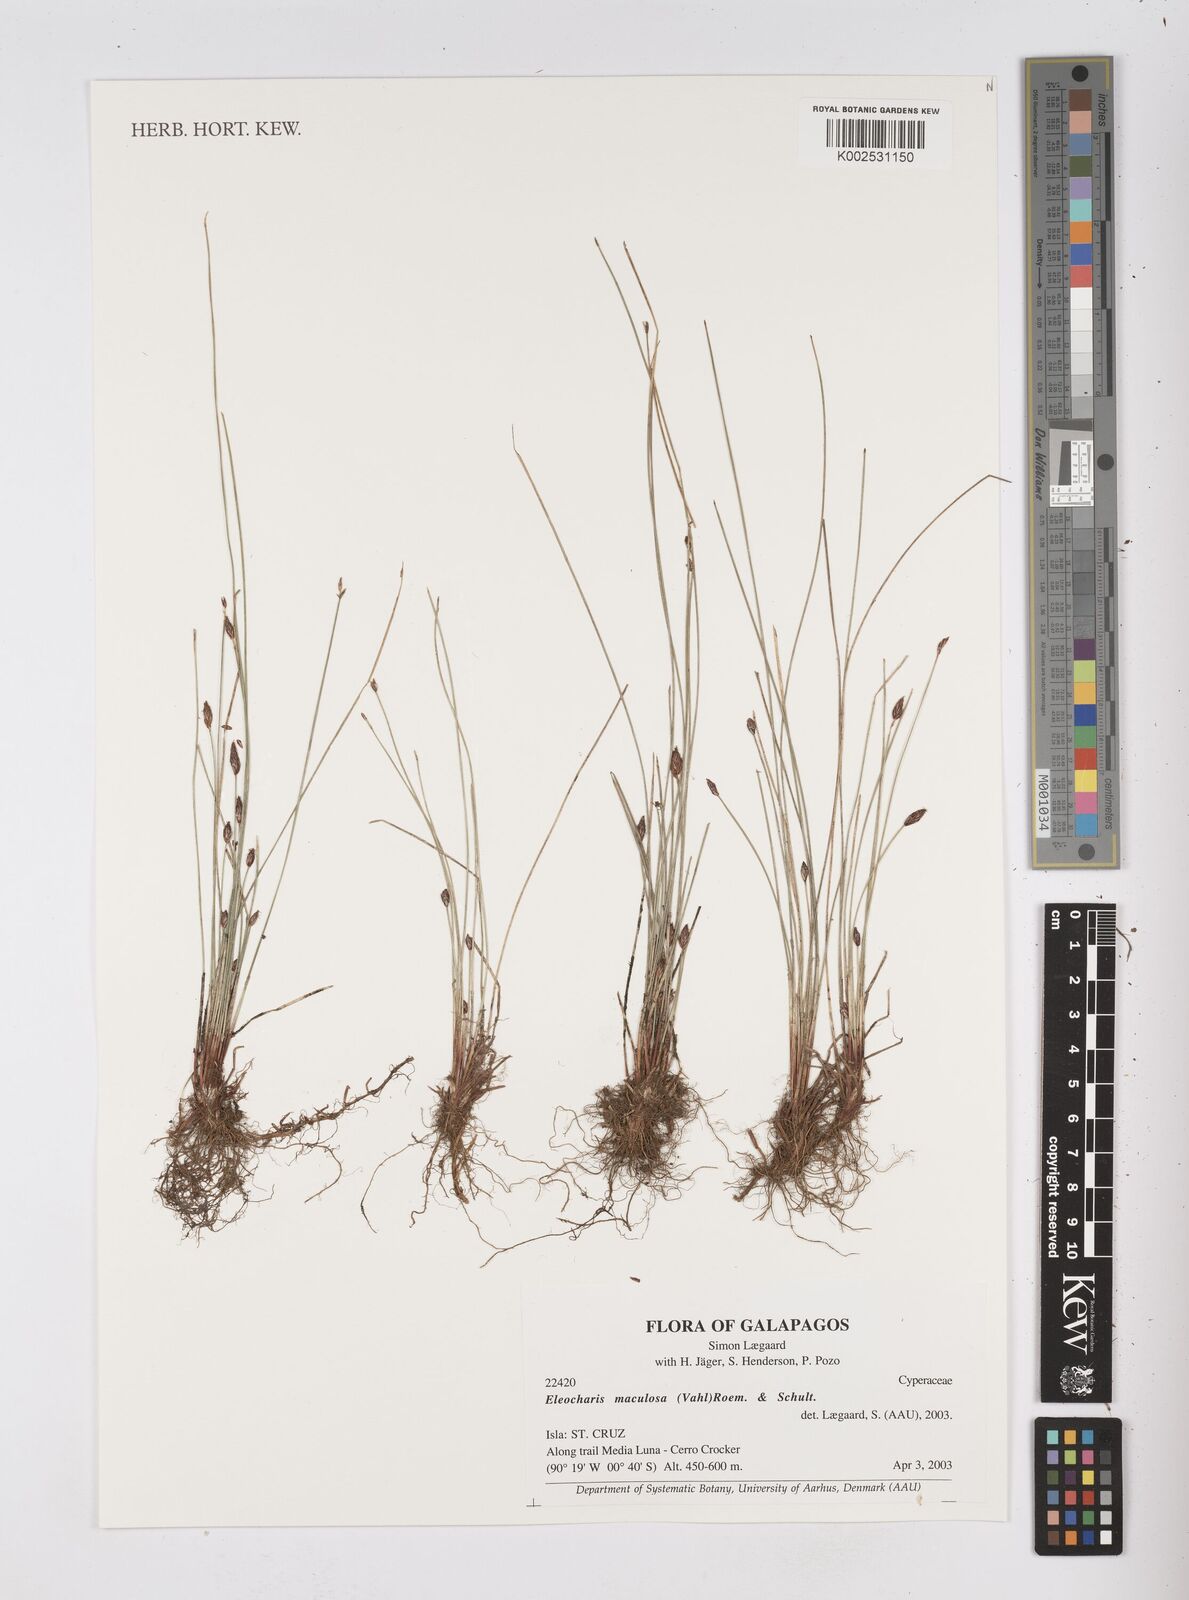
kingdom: Plantae
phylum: Tracheophyta
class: Liliopsida
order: Poales
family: Cyperaceae
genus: Eleocharis
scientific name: Eleocharis maculosa
